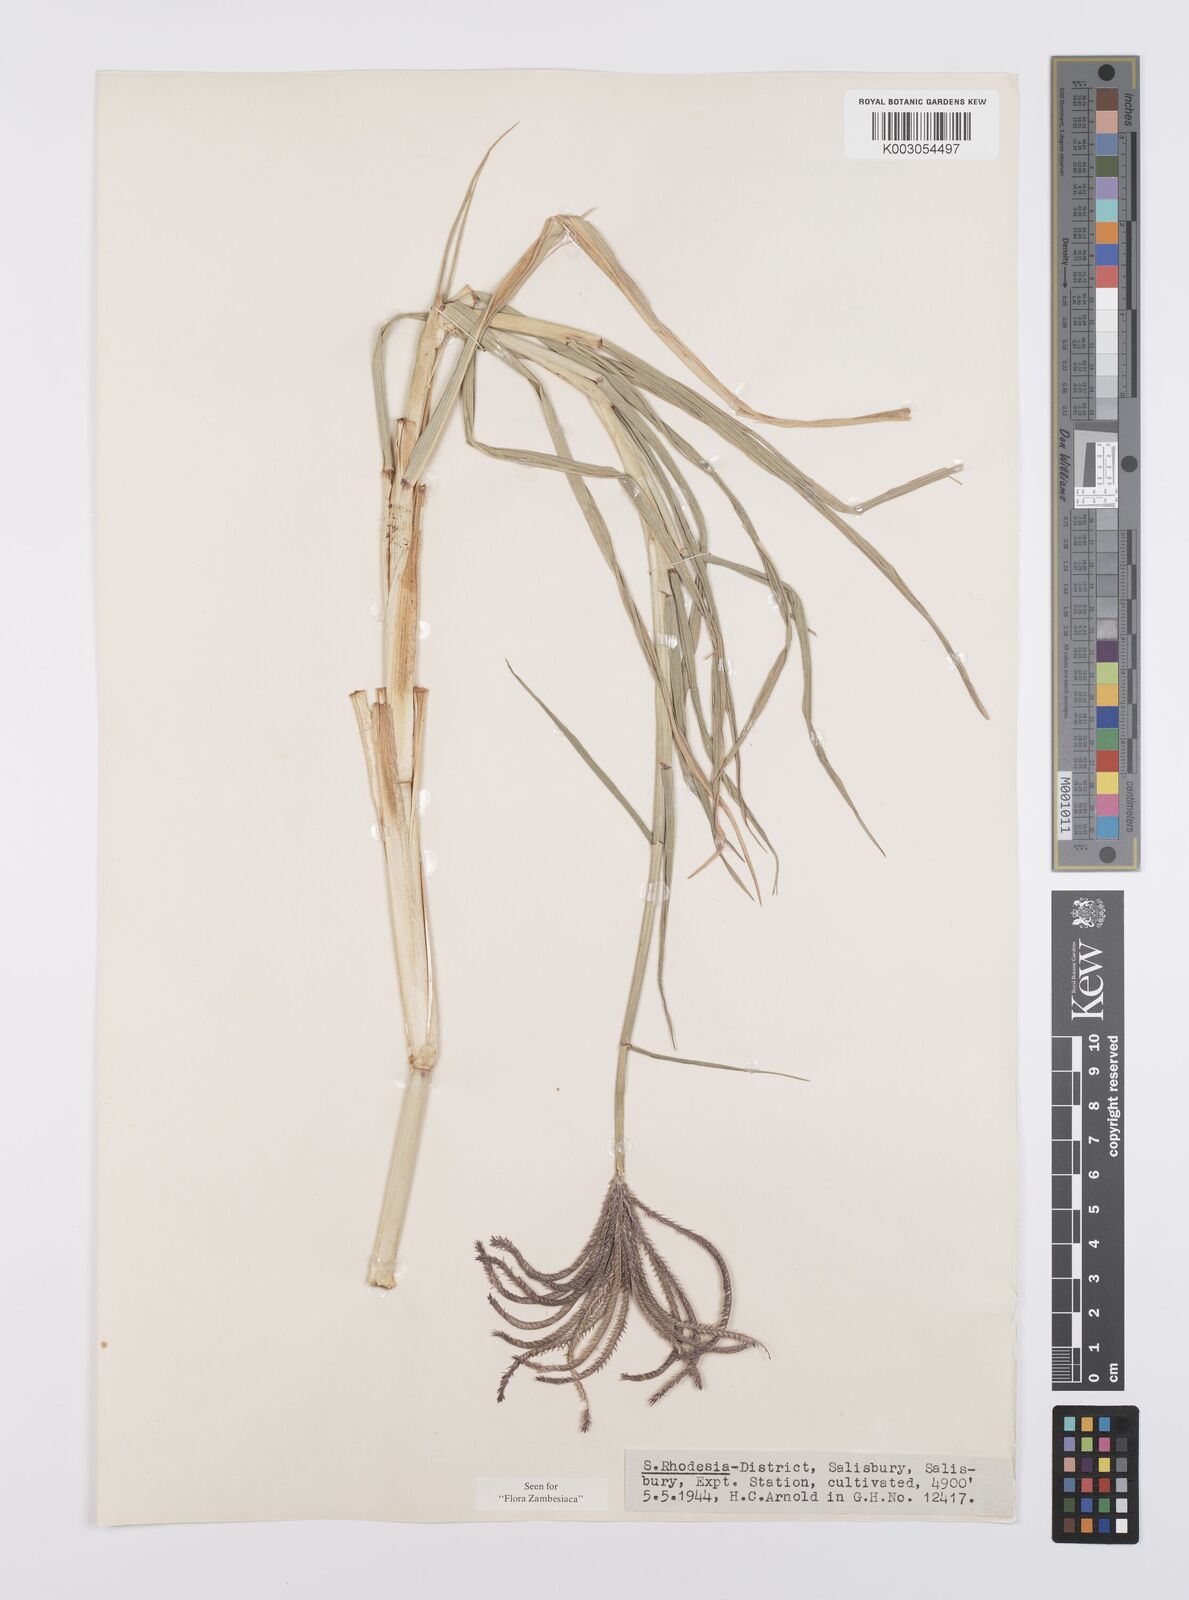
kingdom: Plantae
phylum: Tracheophyta
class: Liliopsida
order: Poales
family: Poaceae
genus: Cynodon
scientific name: Cynodon aethiopicus
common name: Ethiopian dogstooth grass
